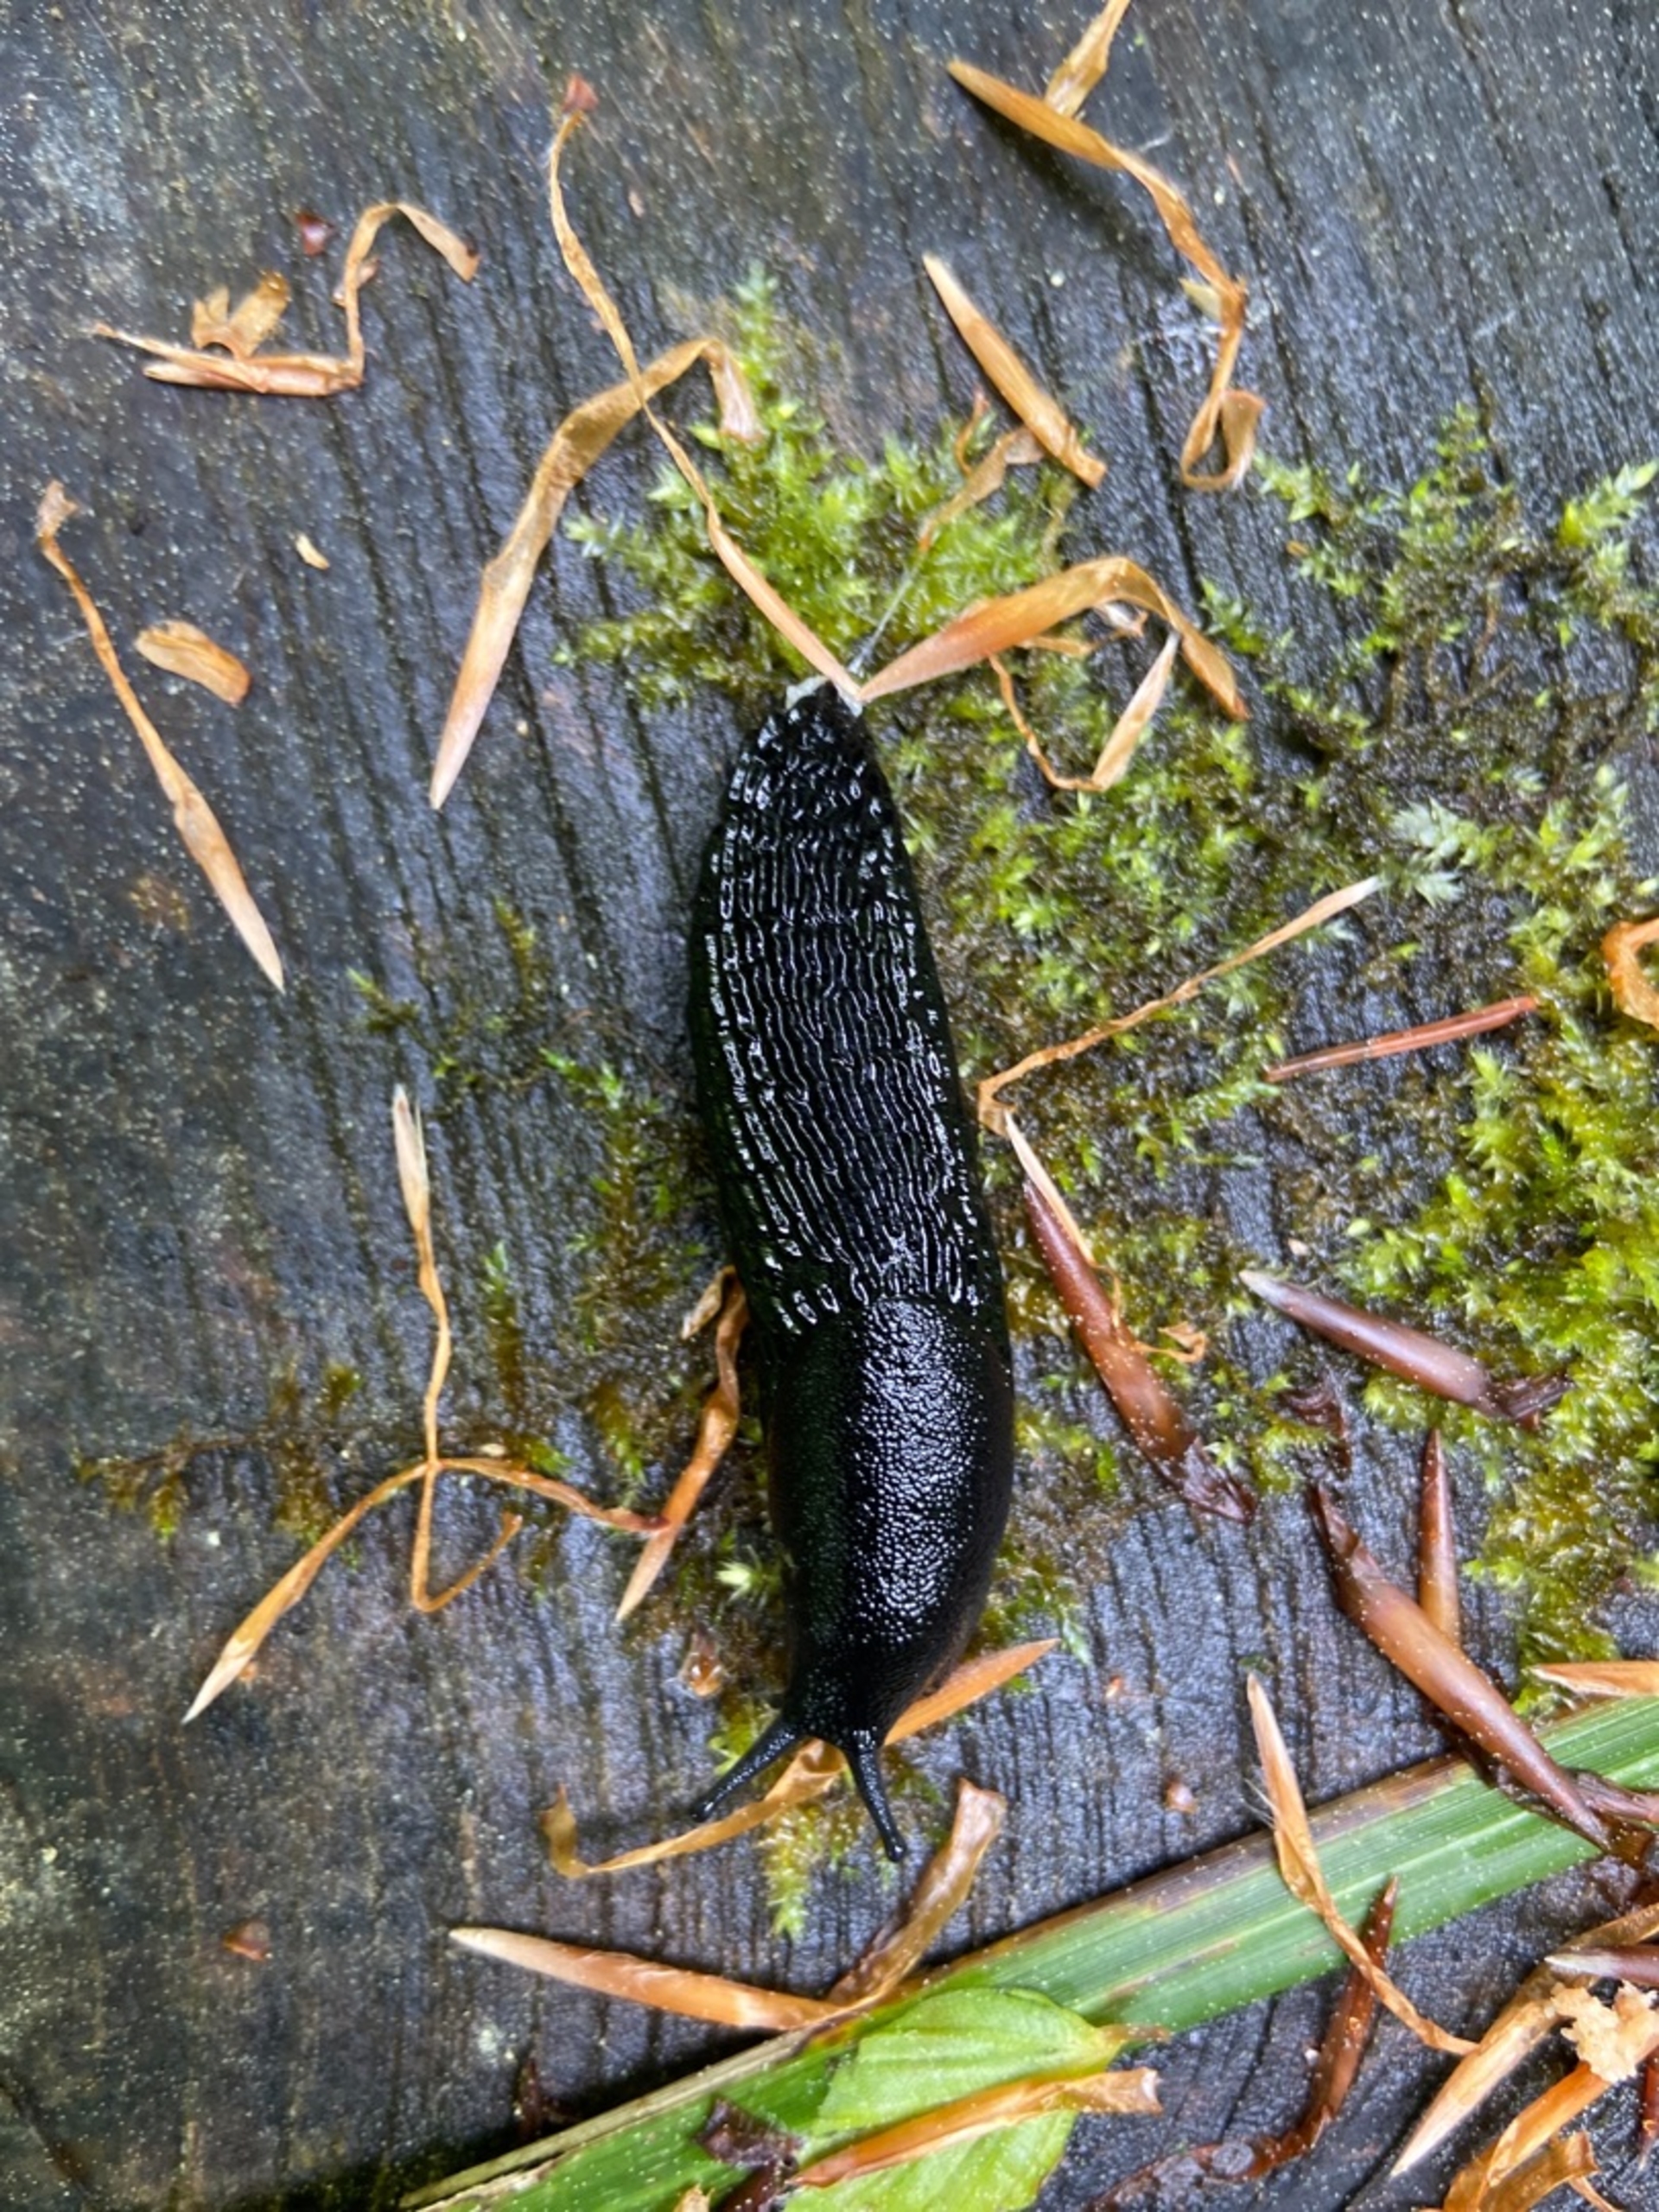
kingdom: Animalia
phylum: Mollusca
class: Gastropoda
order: Stylommatophora
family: Arionidae
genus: Arion
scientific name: Arion ater
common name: Sort skovsnegl
